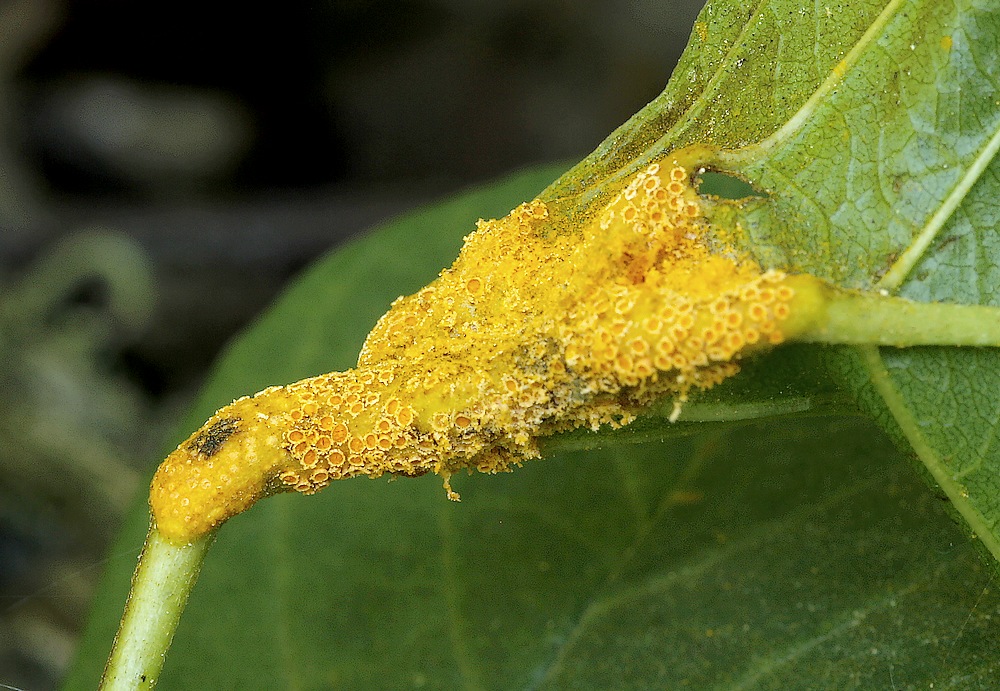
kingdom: Fungi
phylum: Basidiomycota
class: Pucciniomycetes
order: Pucciniales
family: Pucciniaceae
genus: Puccinia
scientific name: Puccinia coronata
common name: Crown rust
